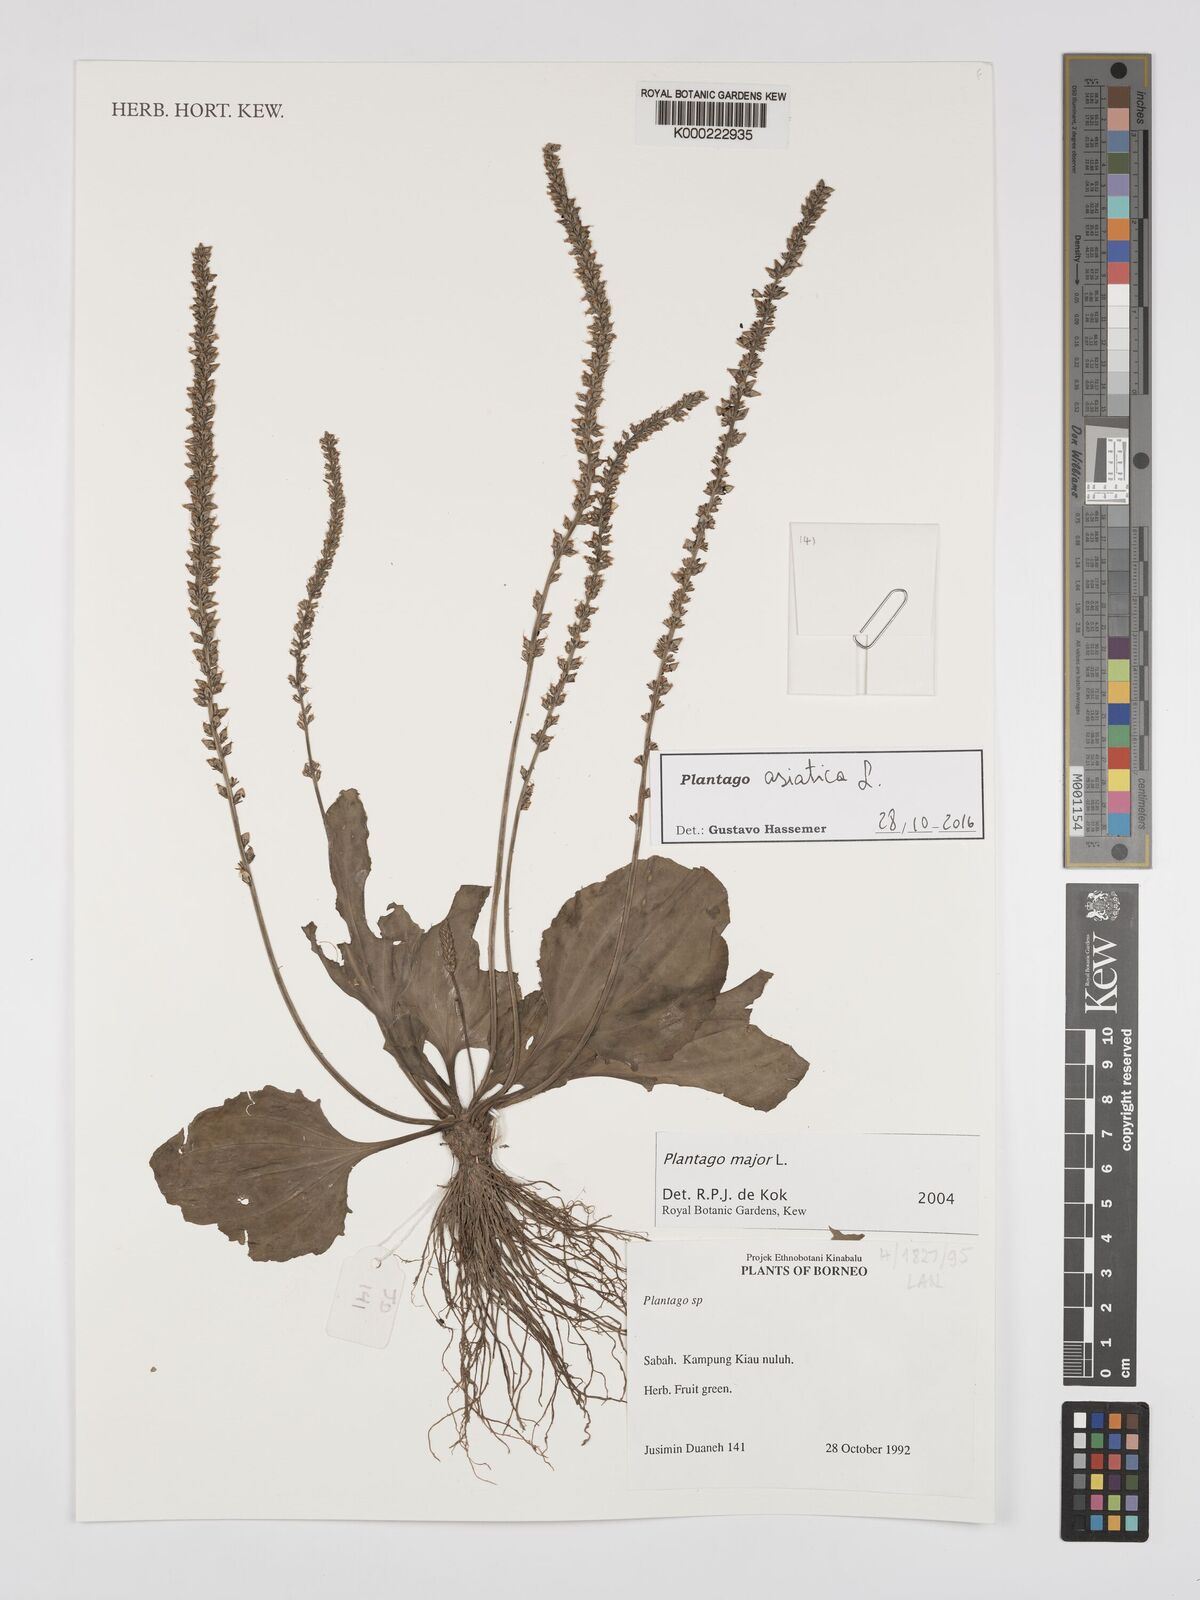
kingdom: Plantae
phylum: Tracheophyta
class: Magnoliopsida
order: Lamiales
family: Plantaginaceae
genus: Plantago
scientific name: Plantago asiatica
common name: Psyllium
